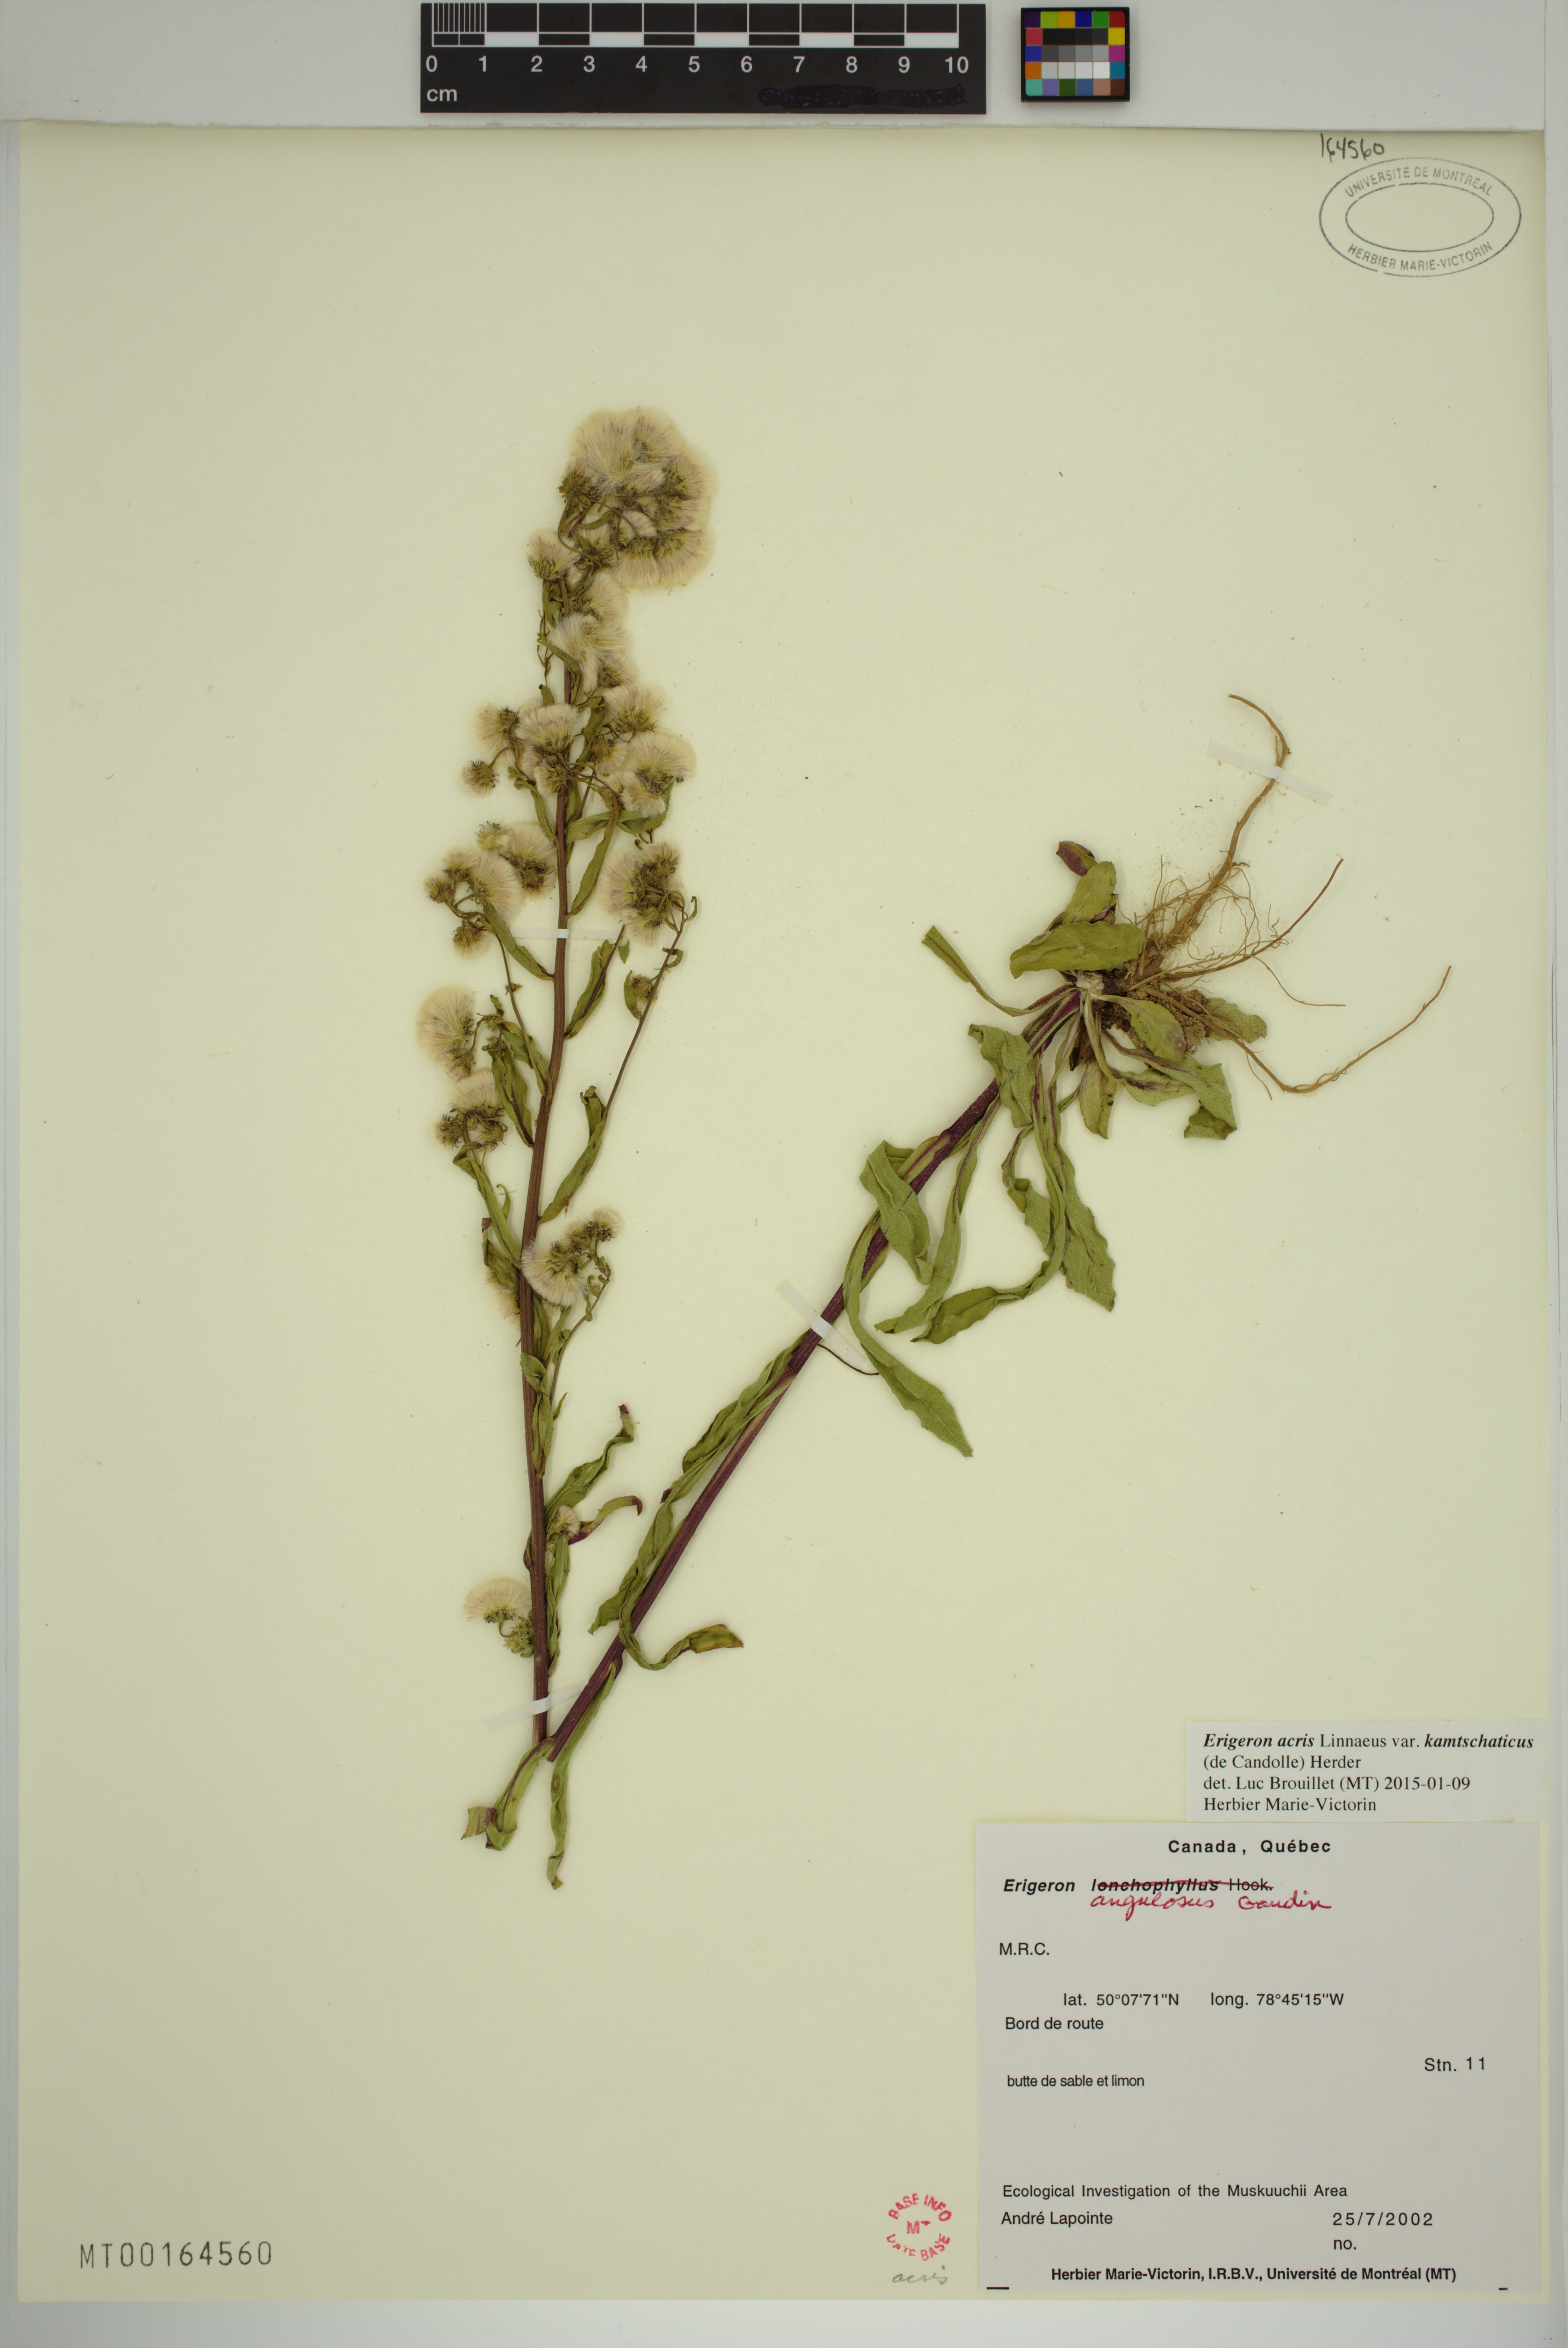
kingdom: Plantae
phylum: Tracheophyta
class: Magnoliopsida
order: Asterales
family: Asteraceae
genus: Erigeron
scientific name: Erigeron kamtschaticus
